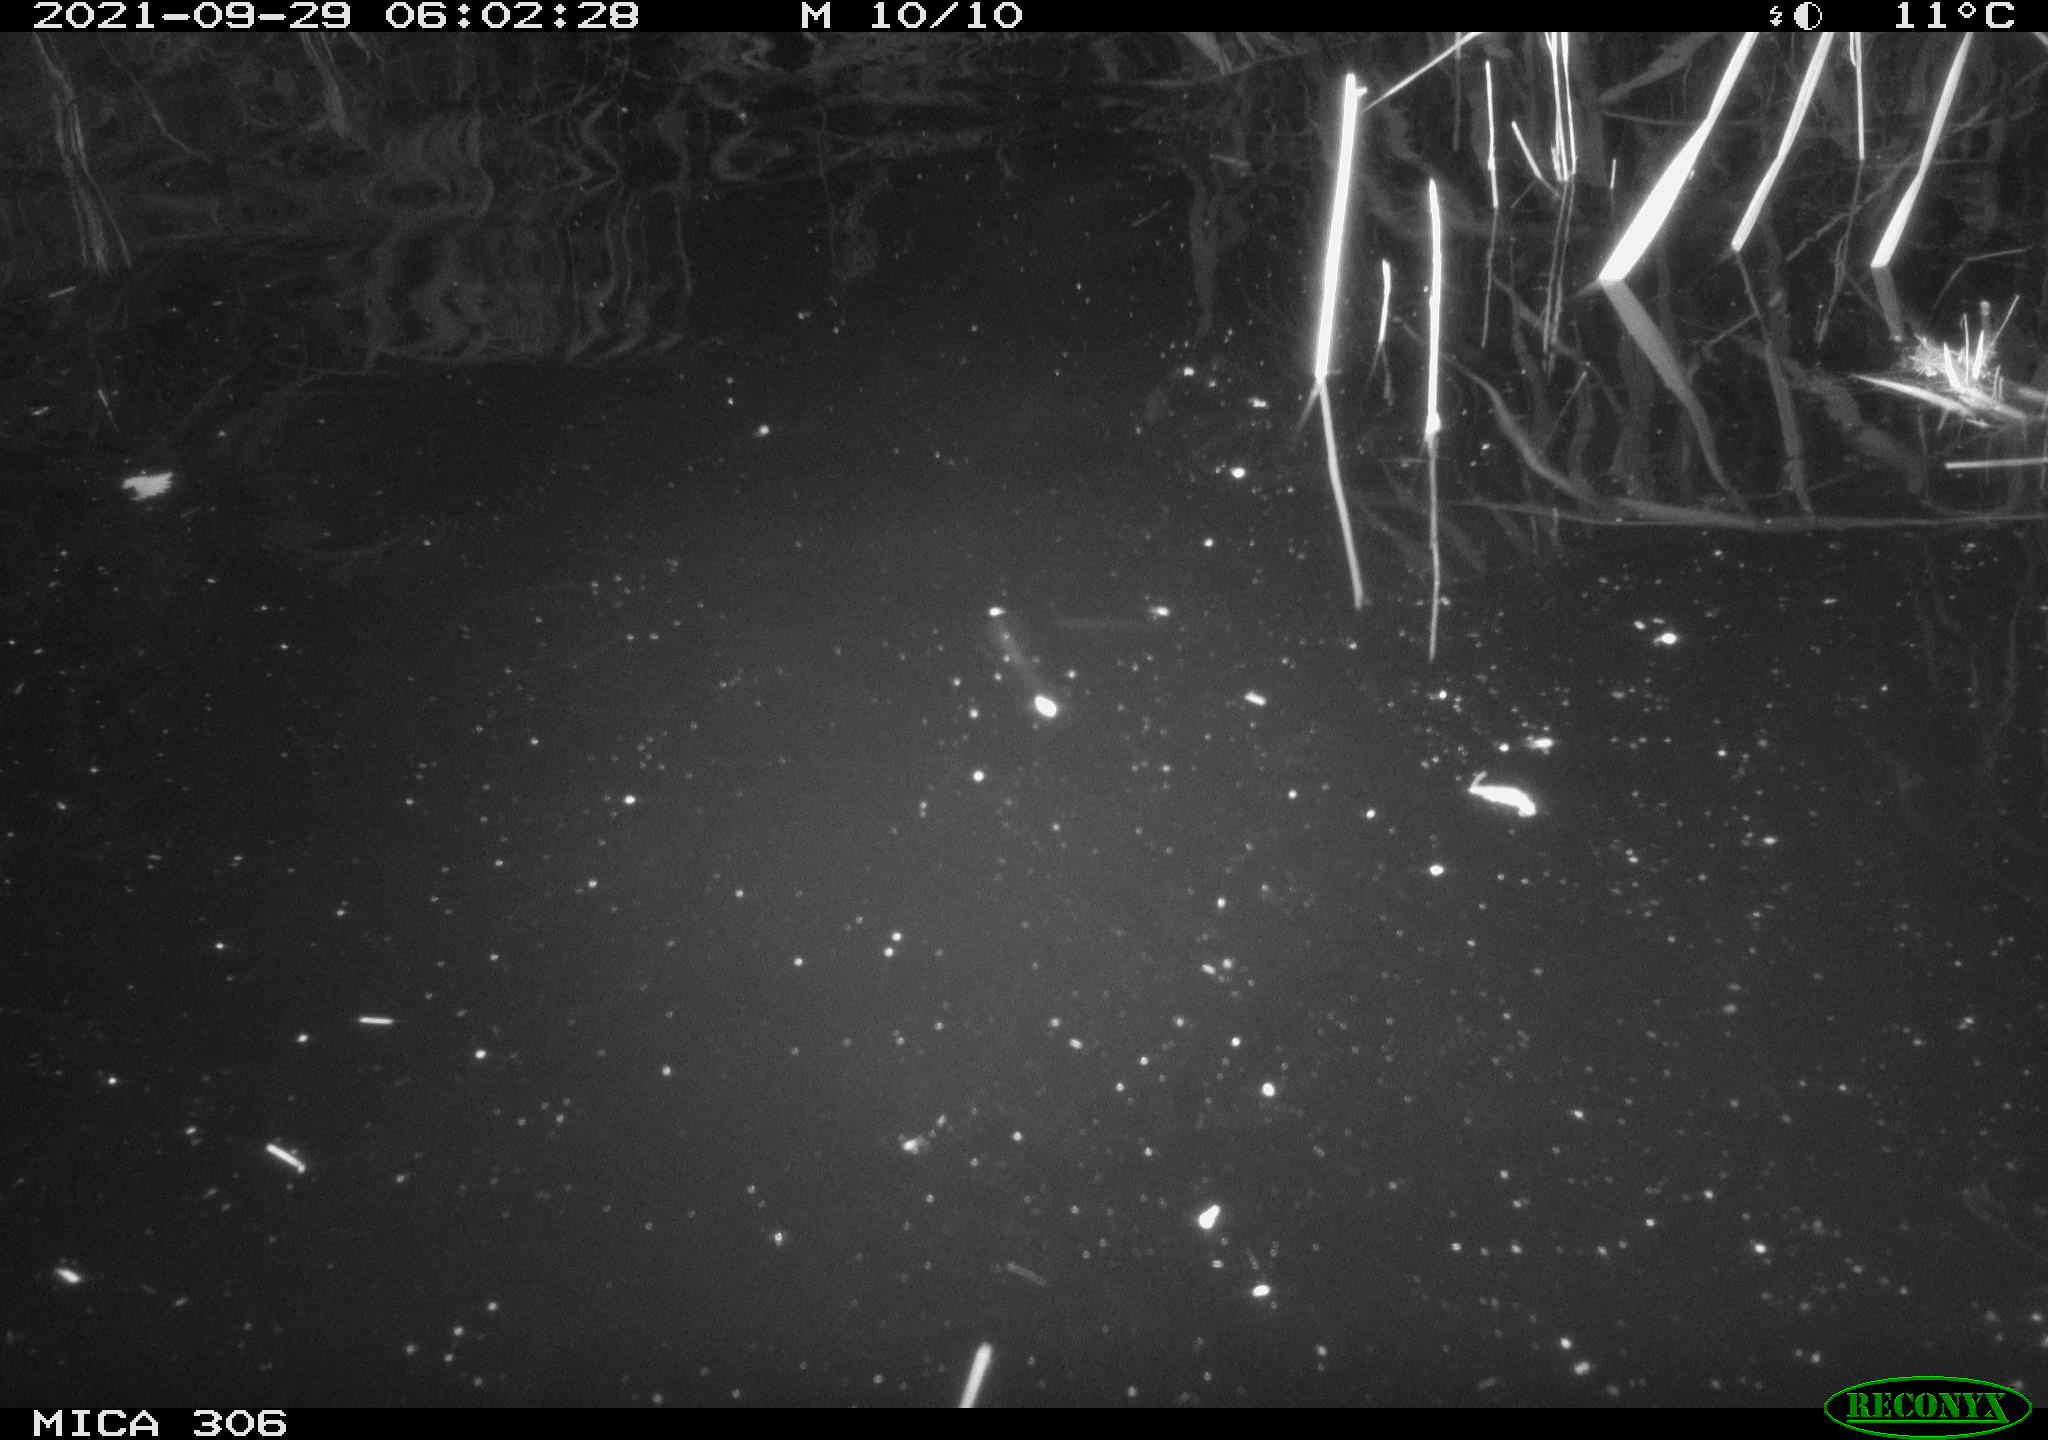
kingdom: Animalia
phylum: Chordata
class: Mammalia
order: Rodentia
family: Cricetidae
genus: Ondatra
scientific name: Ondatra zibethicus
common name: Muskrat
